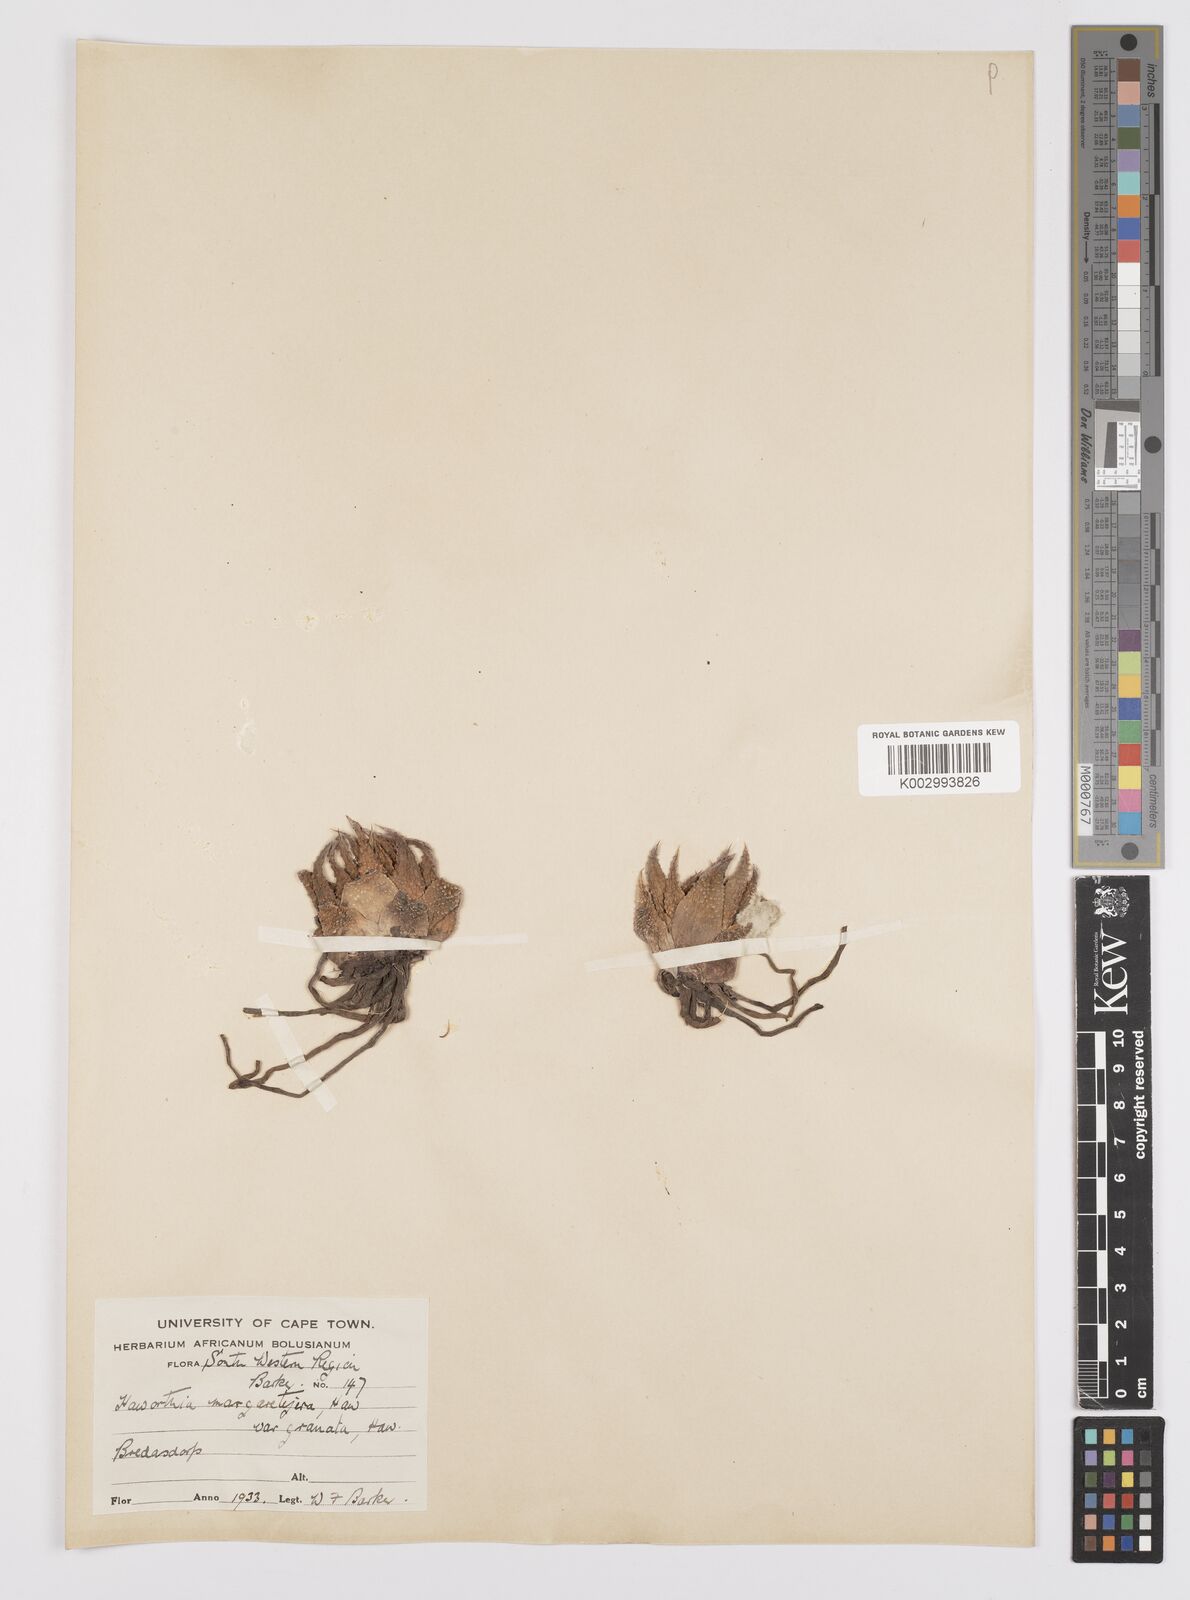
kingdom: Plantae
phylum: Tracheophyta
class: Liliopsida
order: Asparagales
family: Asphodelaceae
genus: Tulista
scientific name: Tulista pumila
